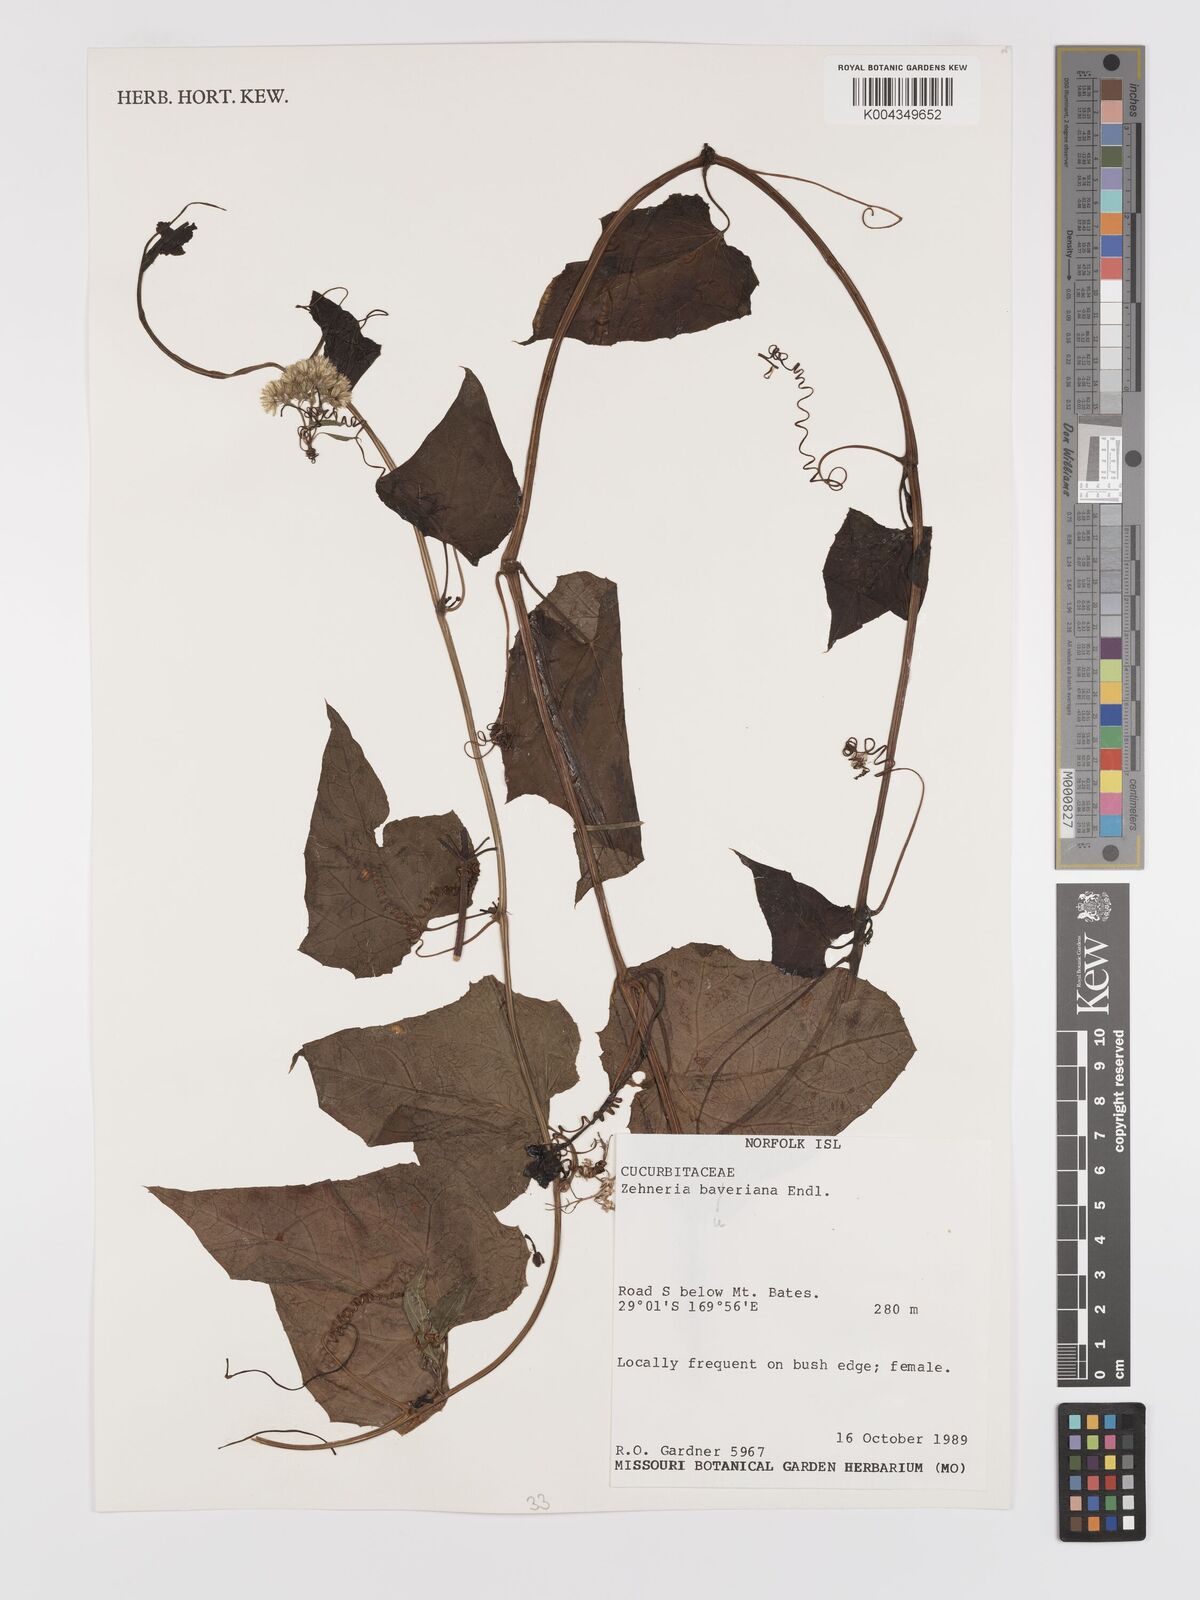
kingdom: Plantae
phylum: Tracheophyta
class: Magnoliopsida
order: Cucurbitales
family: Cucurbitaceae
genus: Zehneria
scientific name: Zehneria mucronata
